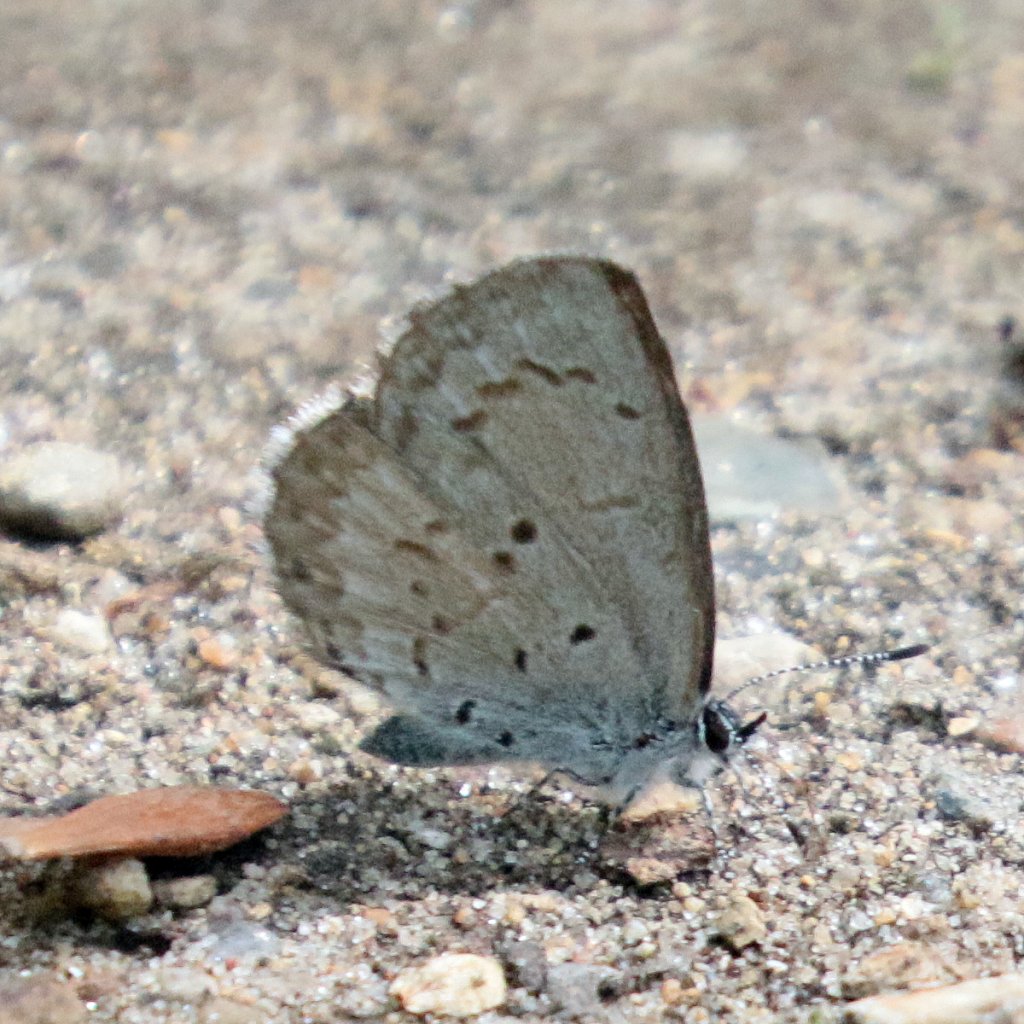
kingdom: Animalia
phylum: Arthropoda
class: Insecta
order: Lepidoptera
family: Lycaenidae
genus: Celastrina
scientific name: Celastrina lucia
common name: Northern Spring Azure
